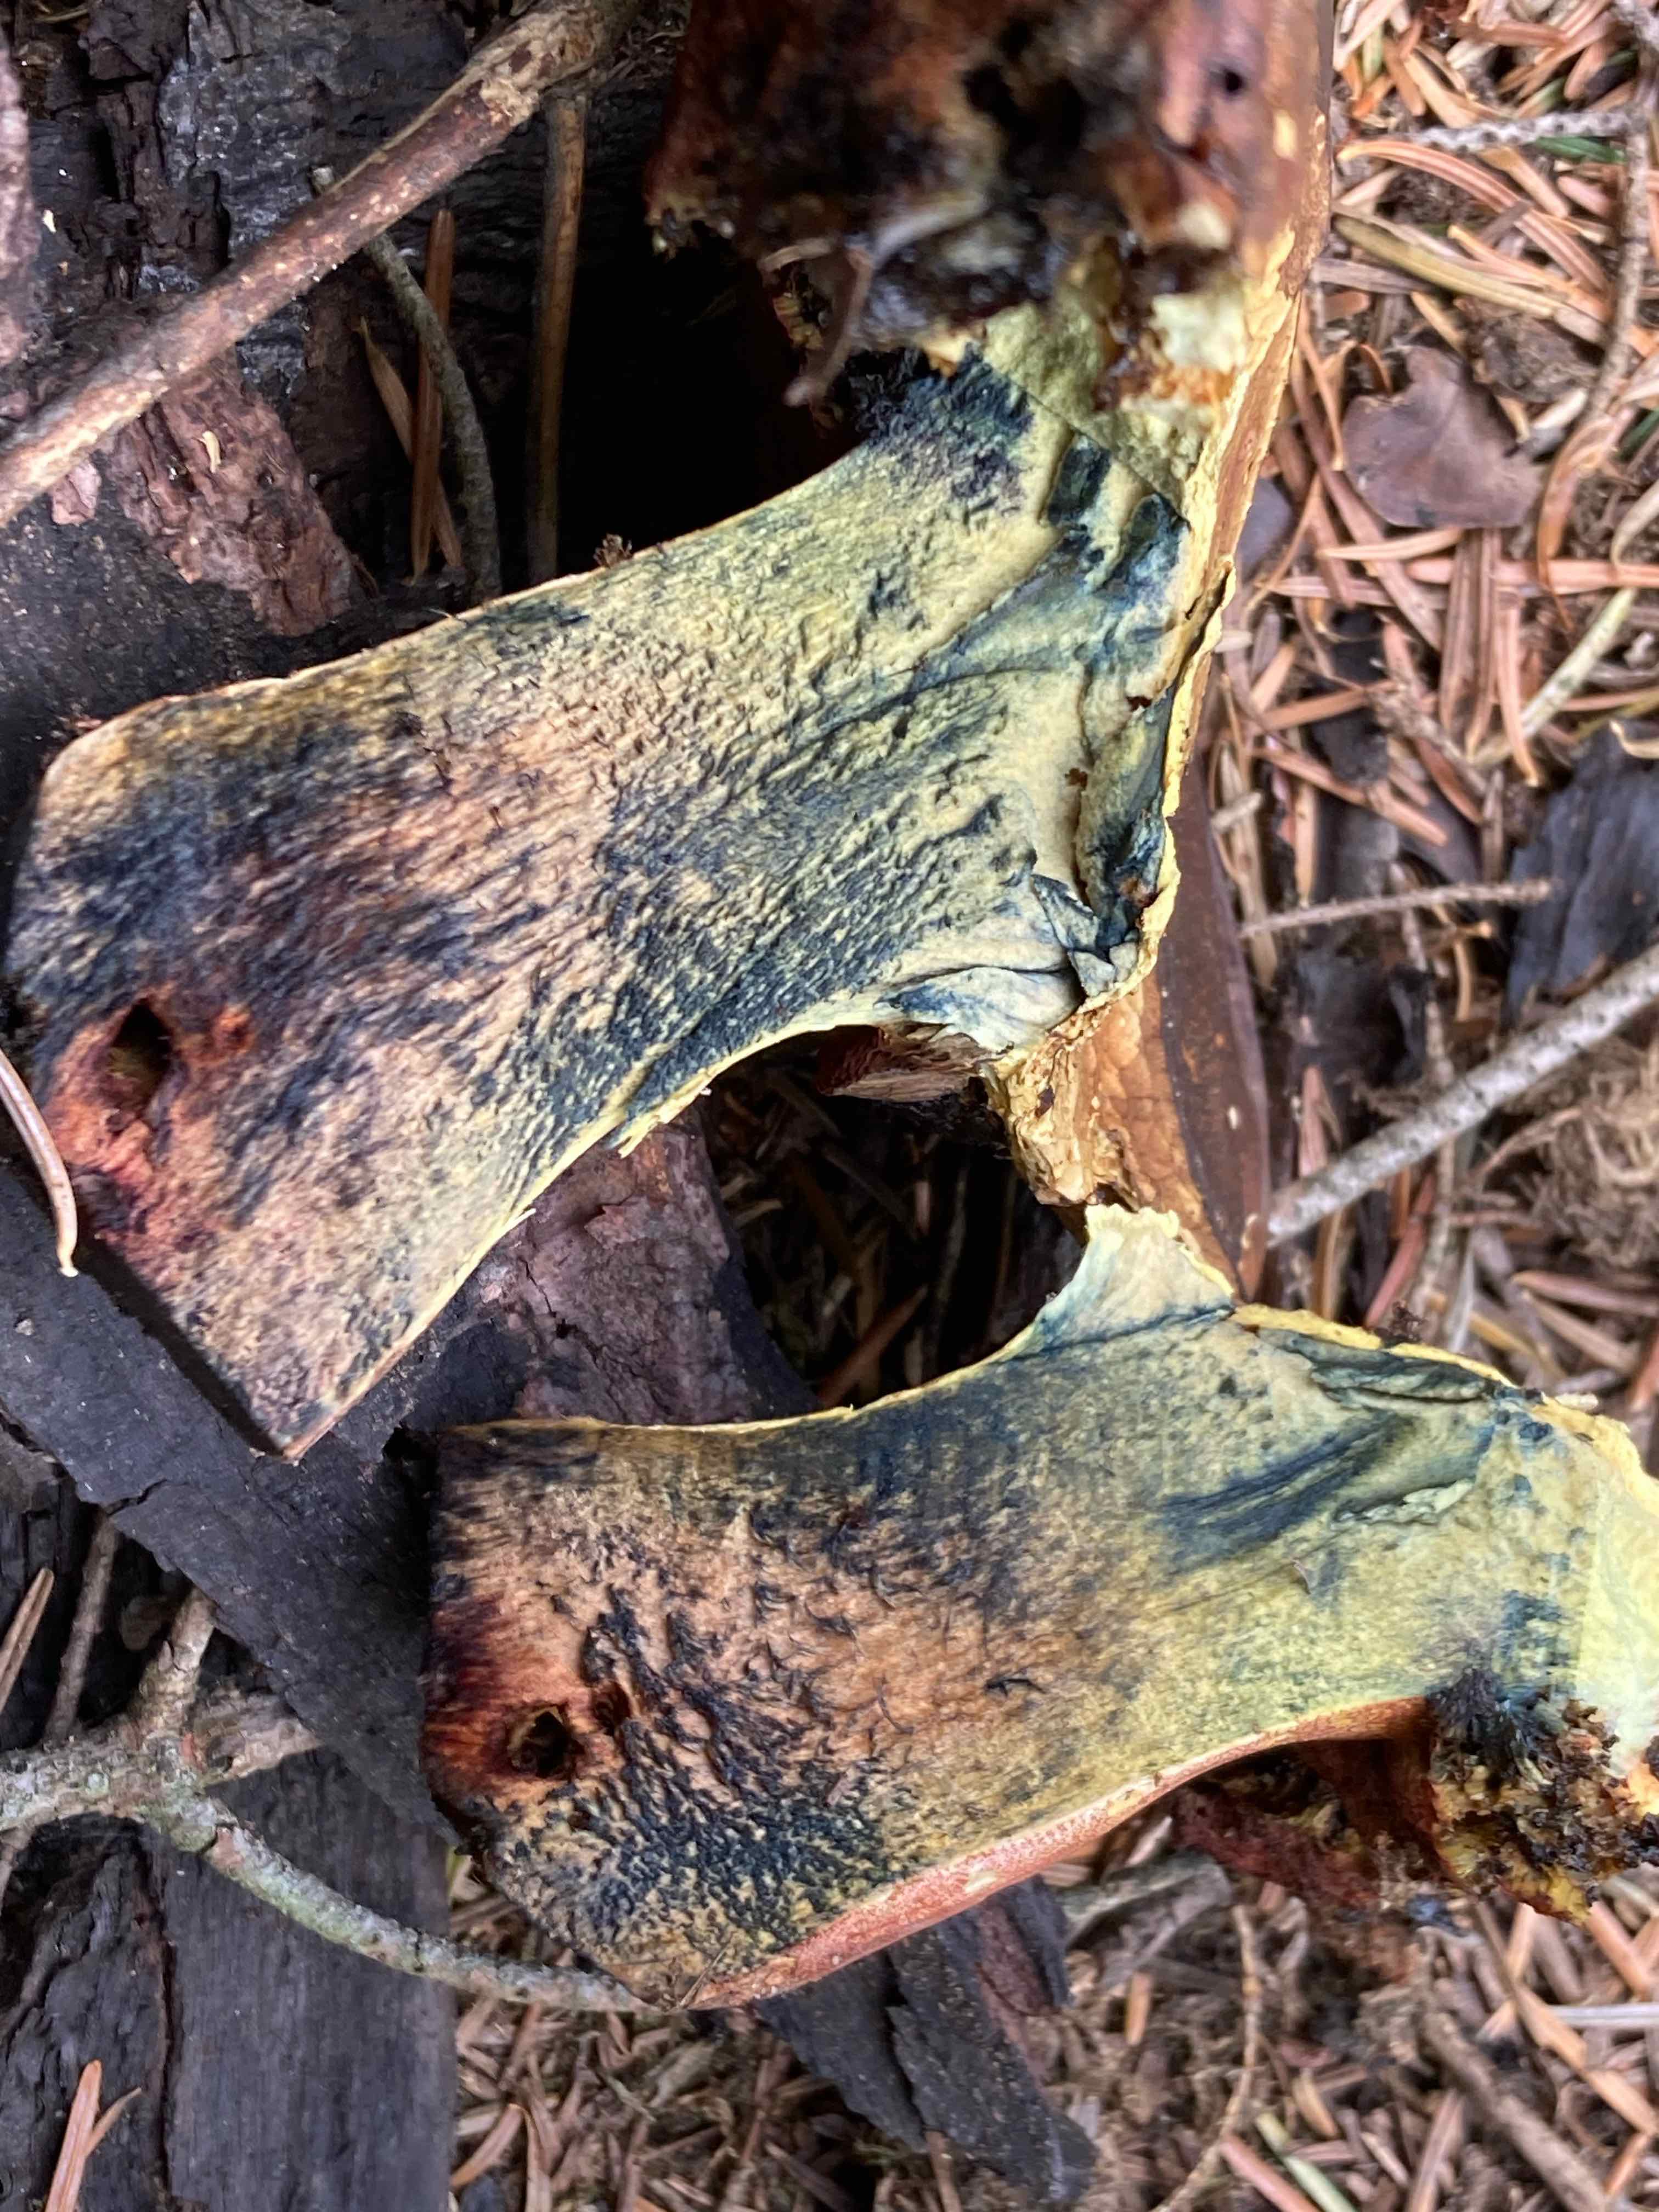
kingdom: Fungi
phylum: Basidiomycota
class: Agaricomycetes
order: Boletales
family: Boletaceae
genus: Neoboletus
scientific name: Neoboletus erythropus
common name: punktstokket indigorørhat
